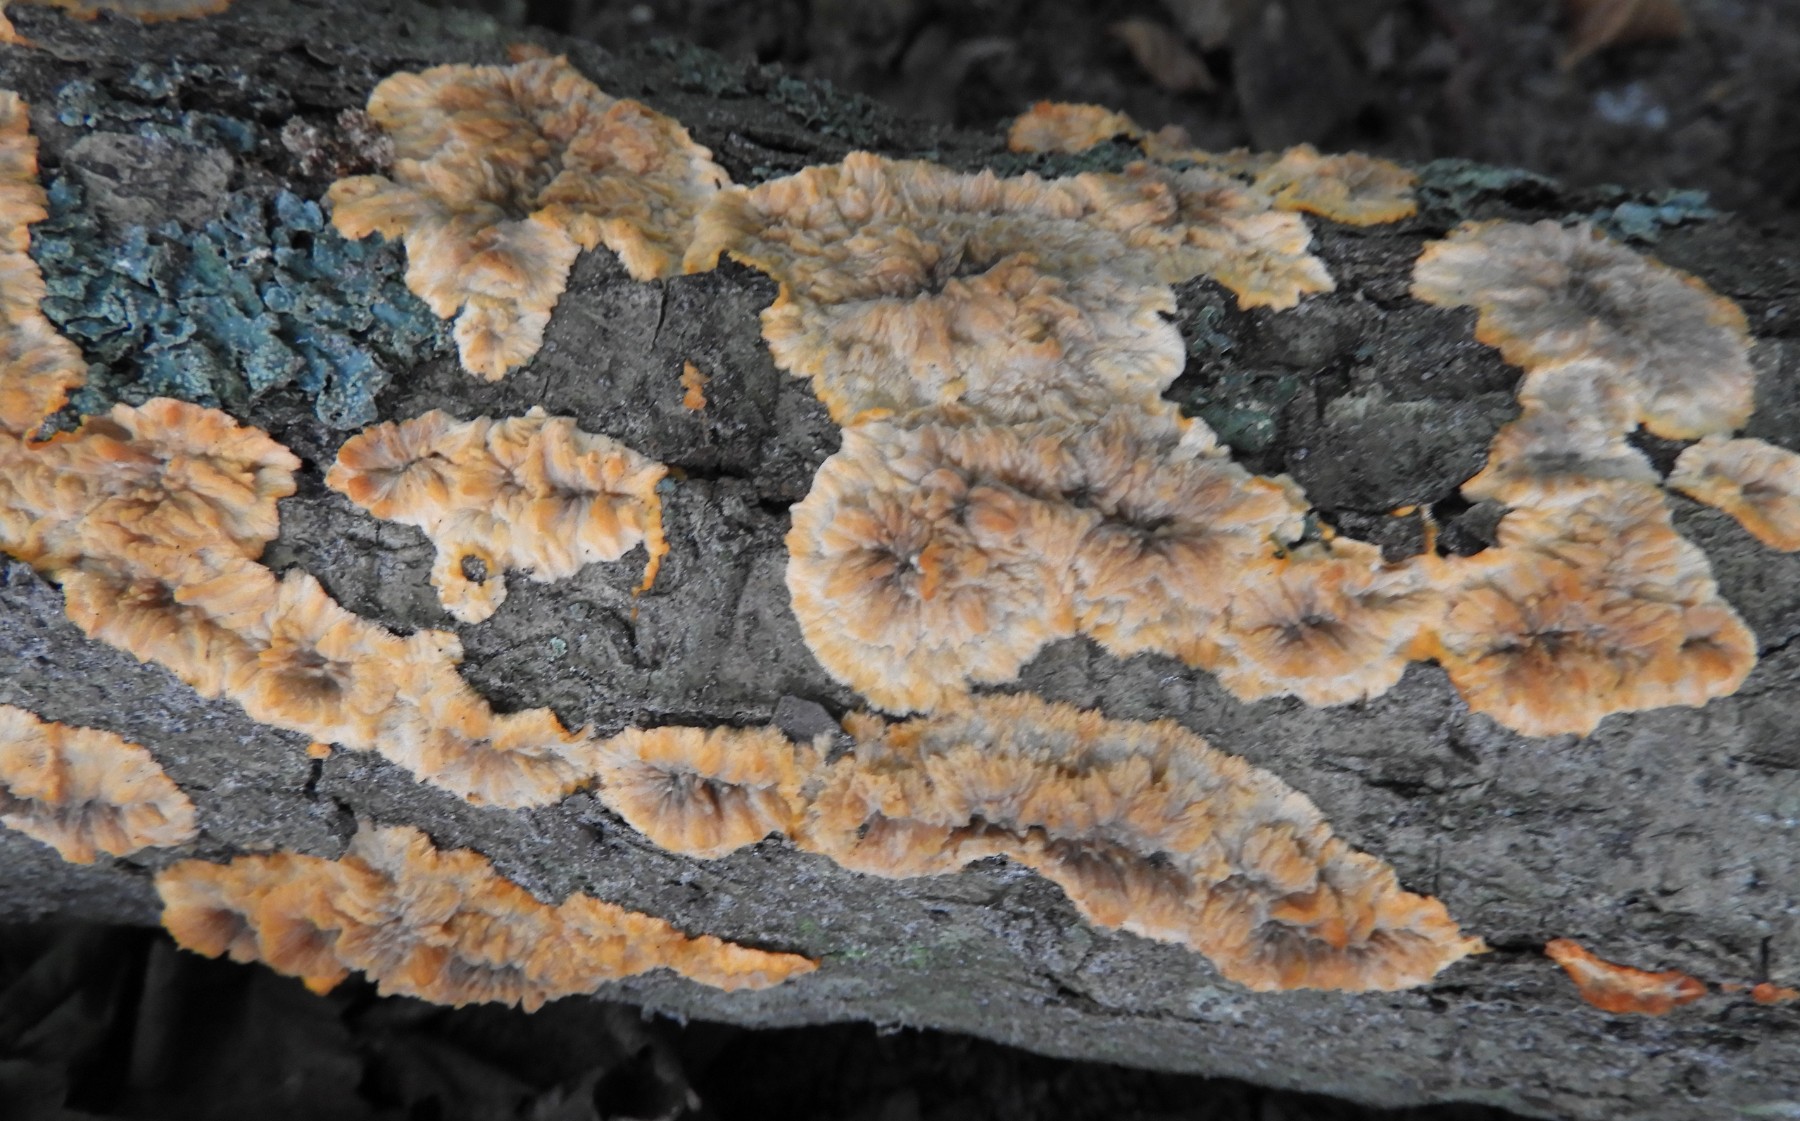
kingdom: Fungi
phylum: Basidiomycota
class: Agaricomycetes
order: Polyporales
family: Meruliaceae
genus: Phlebia
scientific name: Phlebia radiata
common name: stråle-åresvamp
